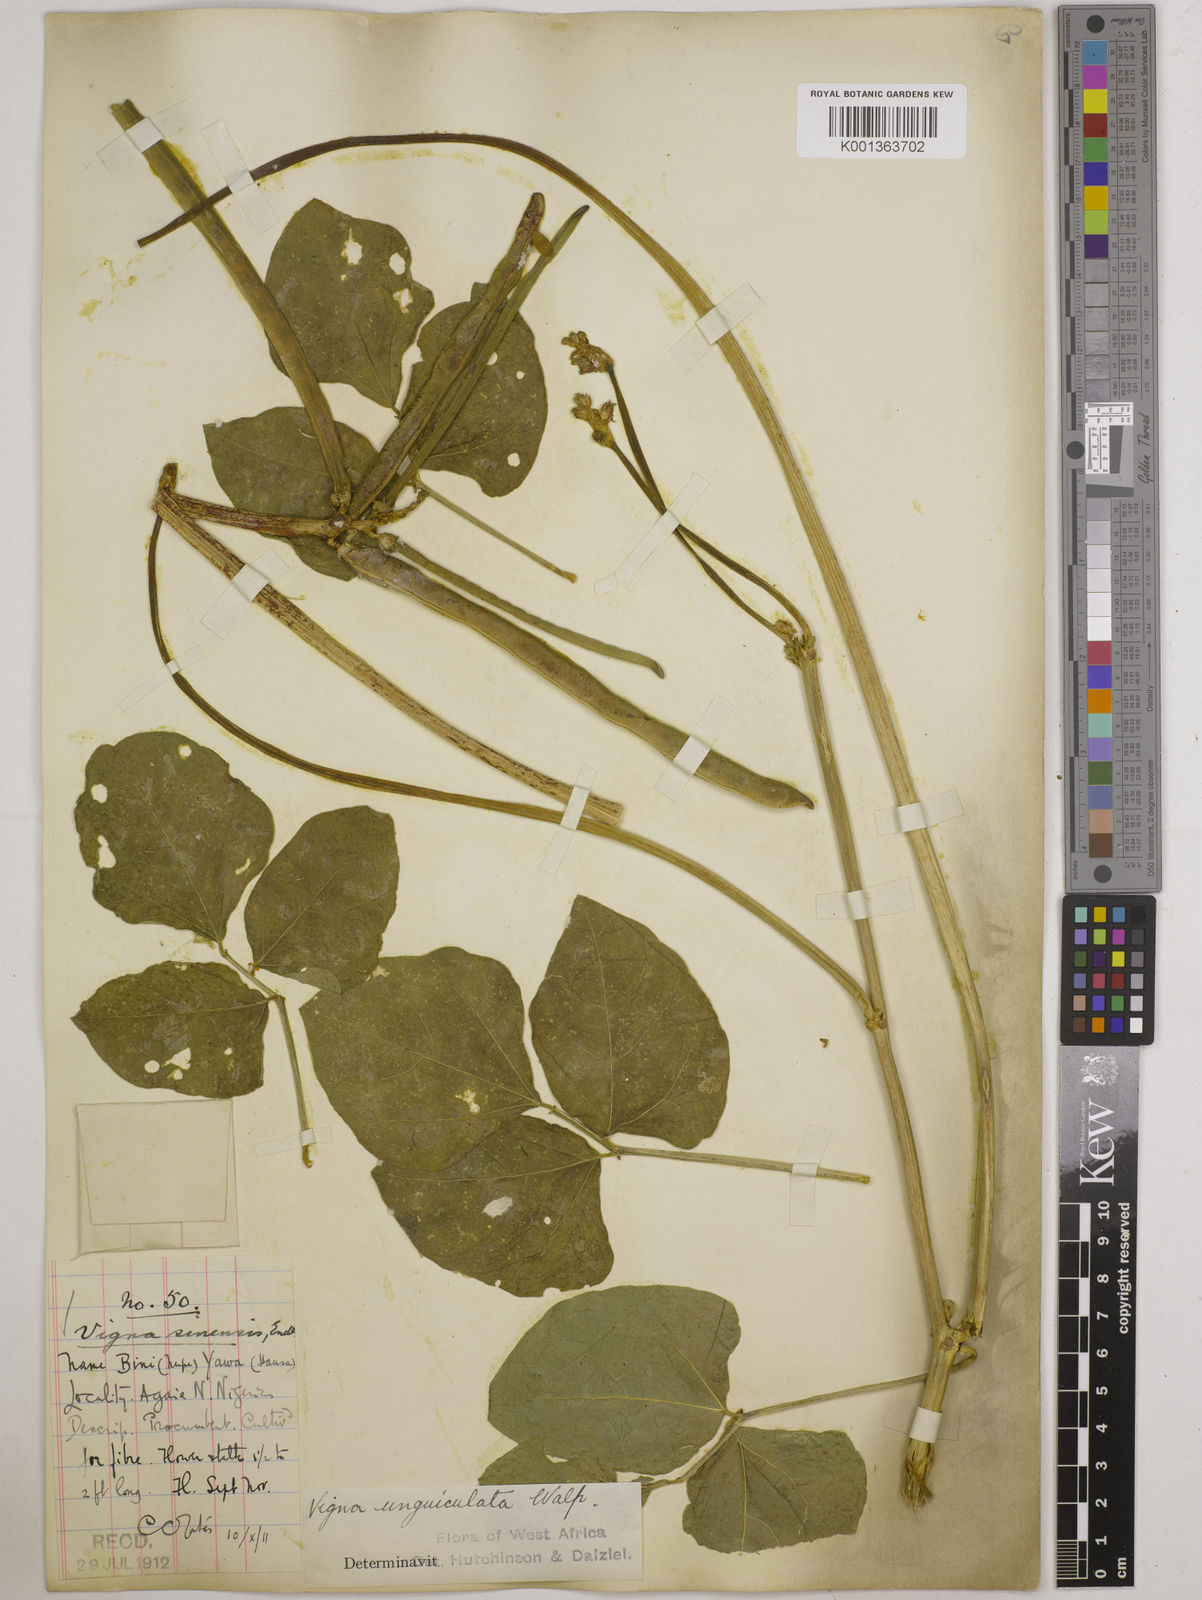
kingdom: Plantae
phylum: Tracheophyta
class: Magnoliopsida
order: Fabales
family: Fabaceae
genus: Vigna
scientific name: Vigna unguiculata
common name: Cowpea
